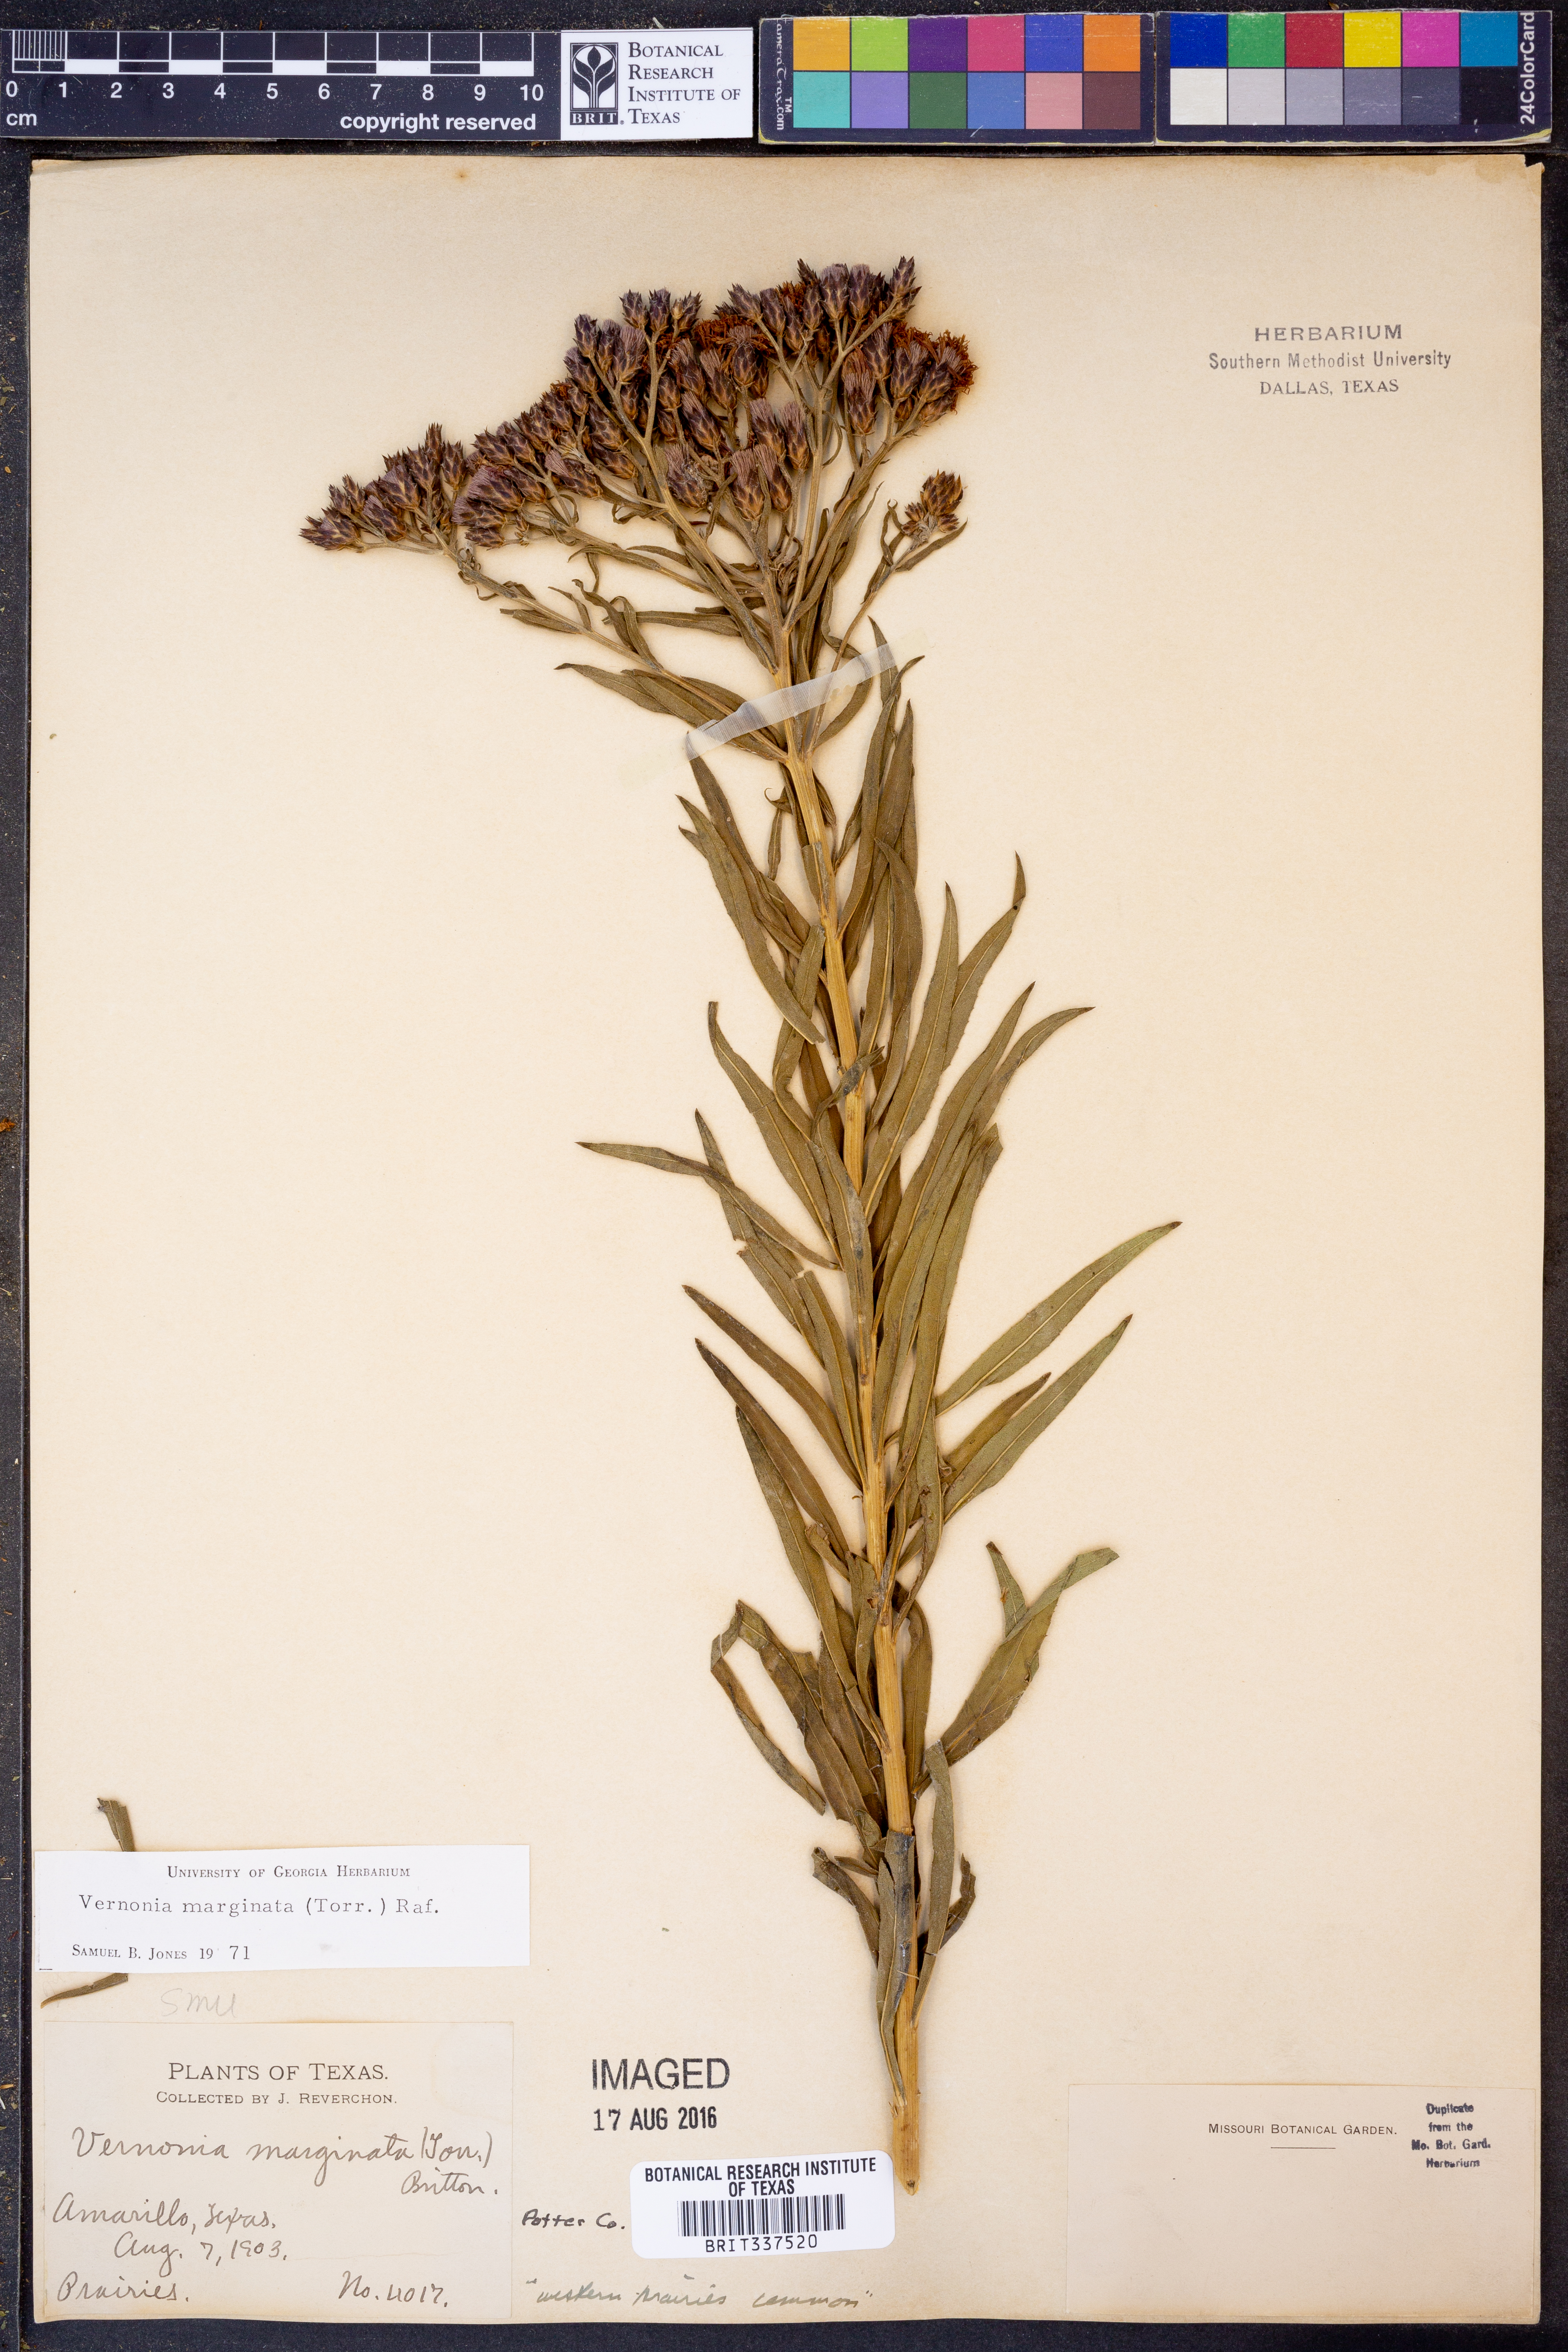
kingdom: Plantae
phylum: Tracheophyta
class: Magnoliopsida
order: Asterales
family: Asteraceae
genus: Vernonia
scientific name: Vernonia marginata
